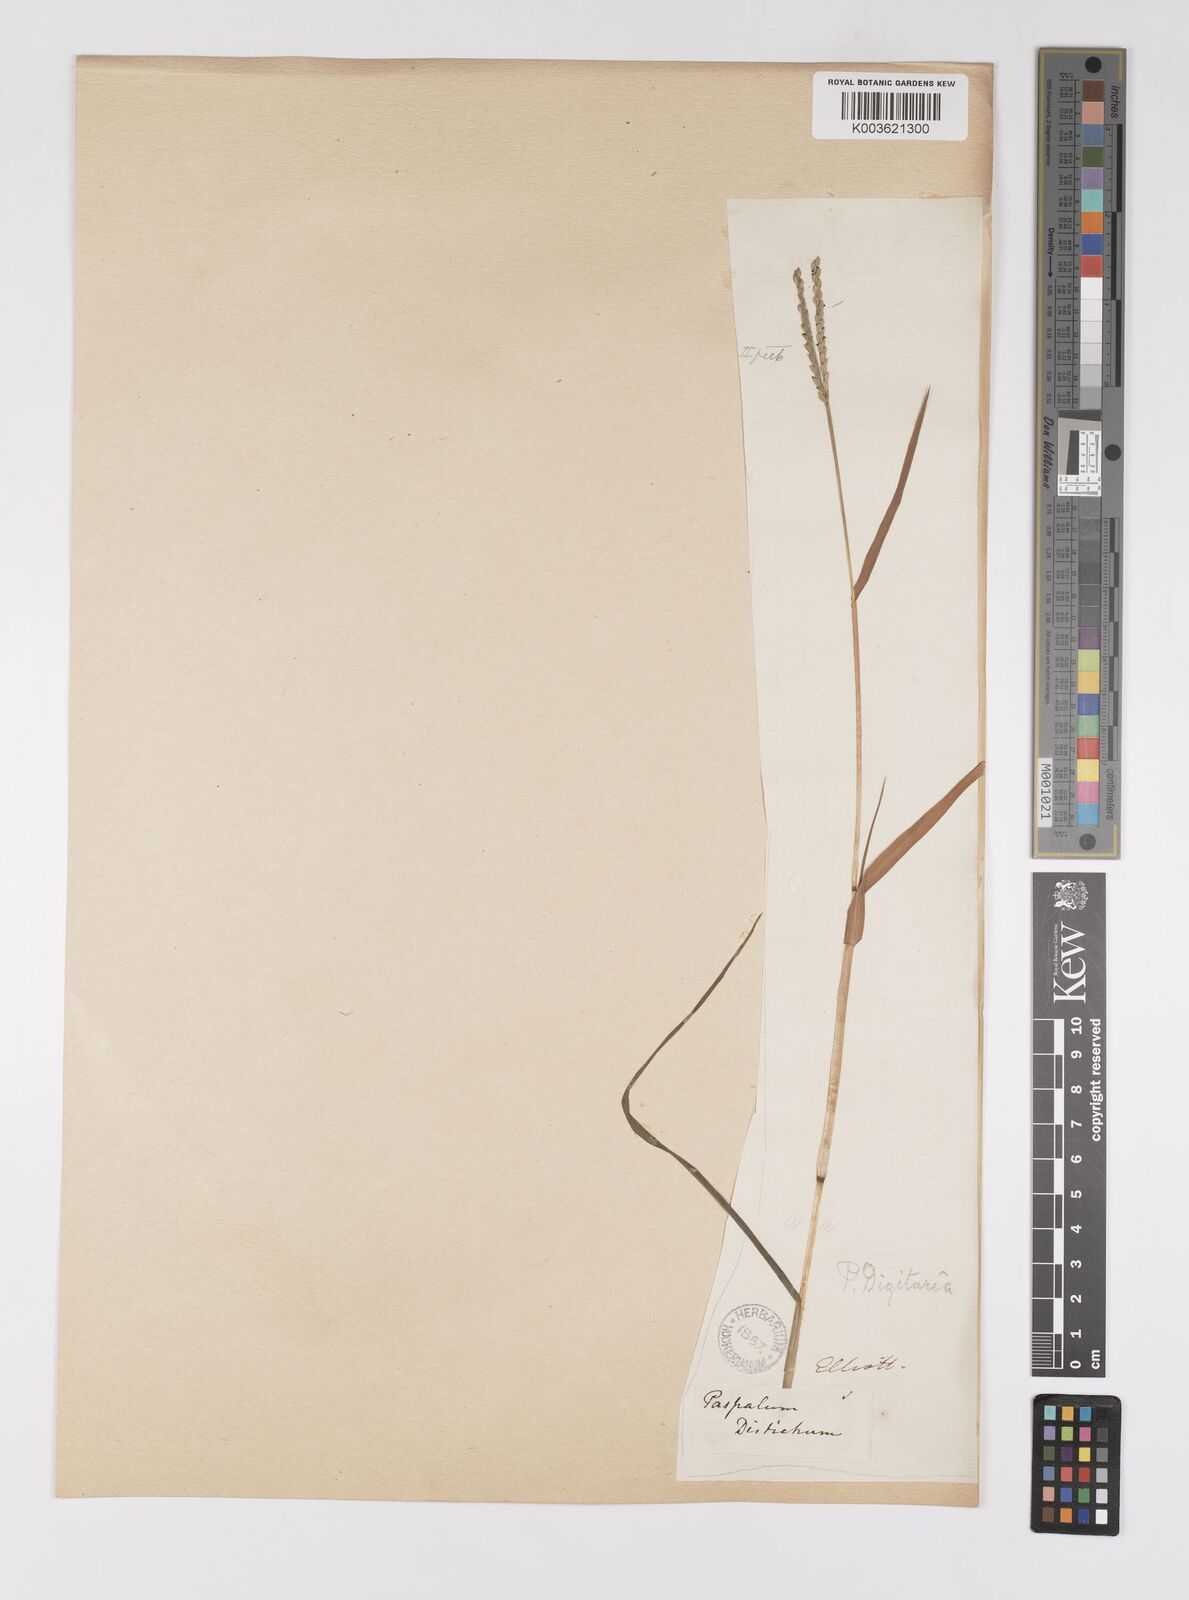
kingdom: Plantae
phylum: Tracheophyta
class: Liliopsida
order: Poales
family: Poaceae
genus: Paspalum
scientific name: Paspalum distichum
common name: Knotgrass
